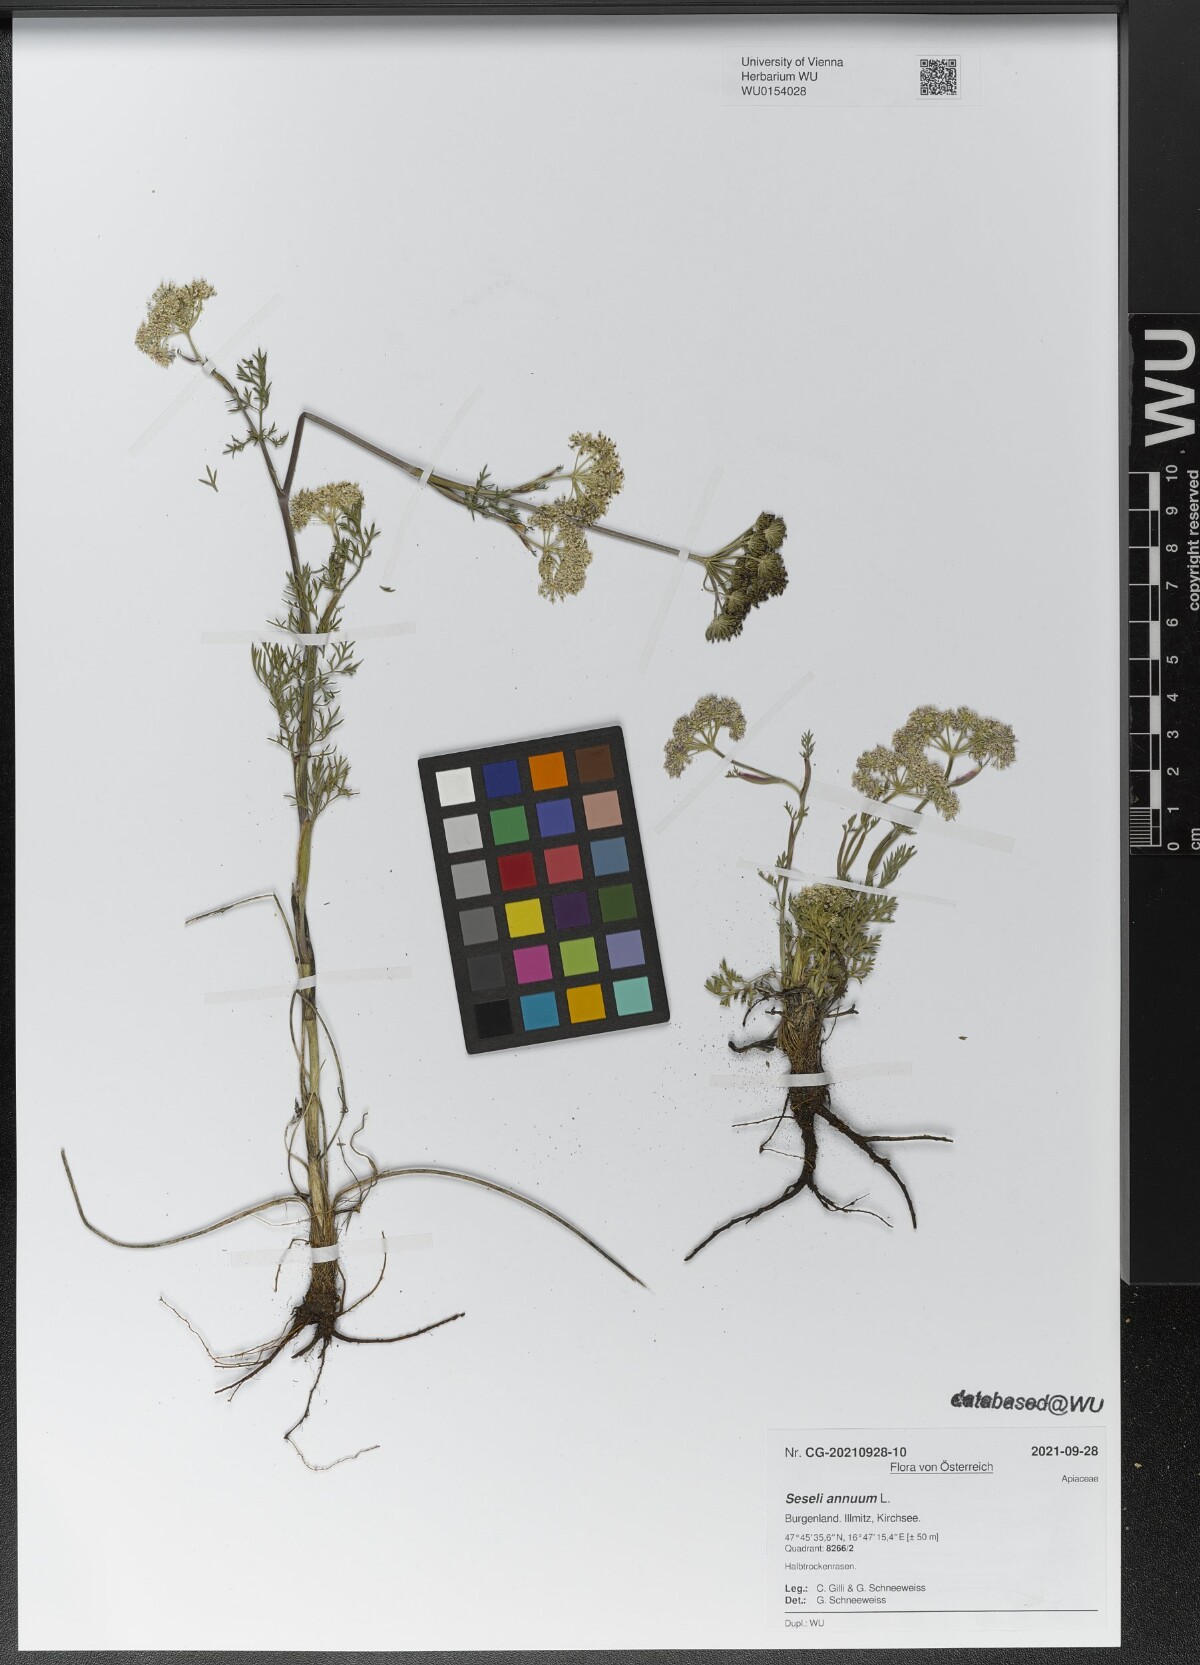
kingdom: Plantae
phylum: Tracheophyta
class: Magnoliopsida
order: Apiales
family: Apiaceae
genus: Seseli
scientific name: Seseli annuum
